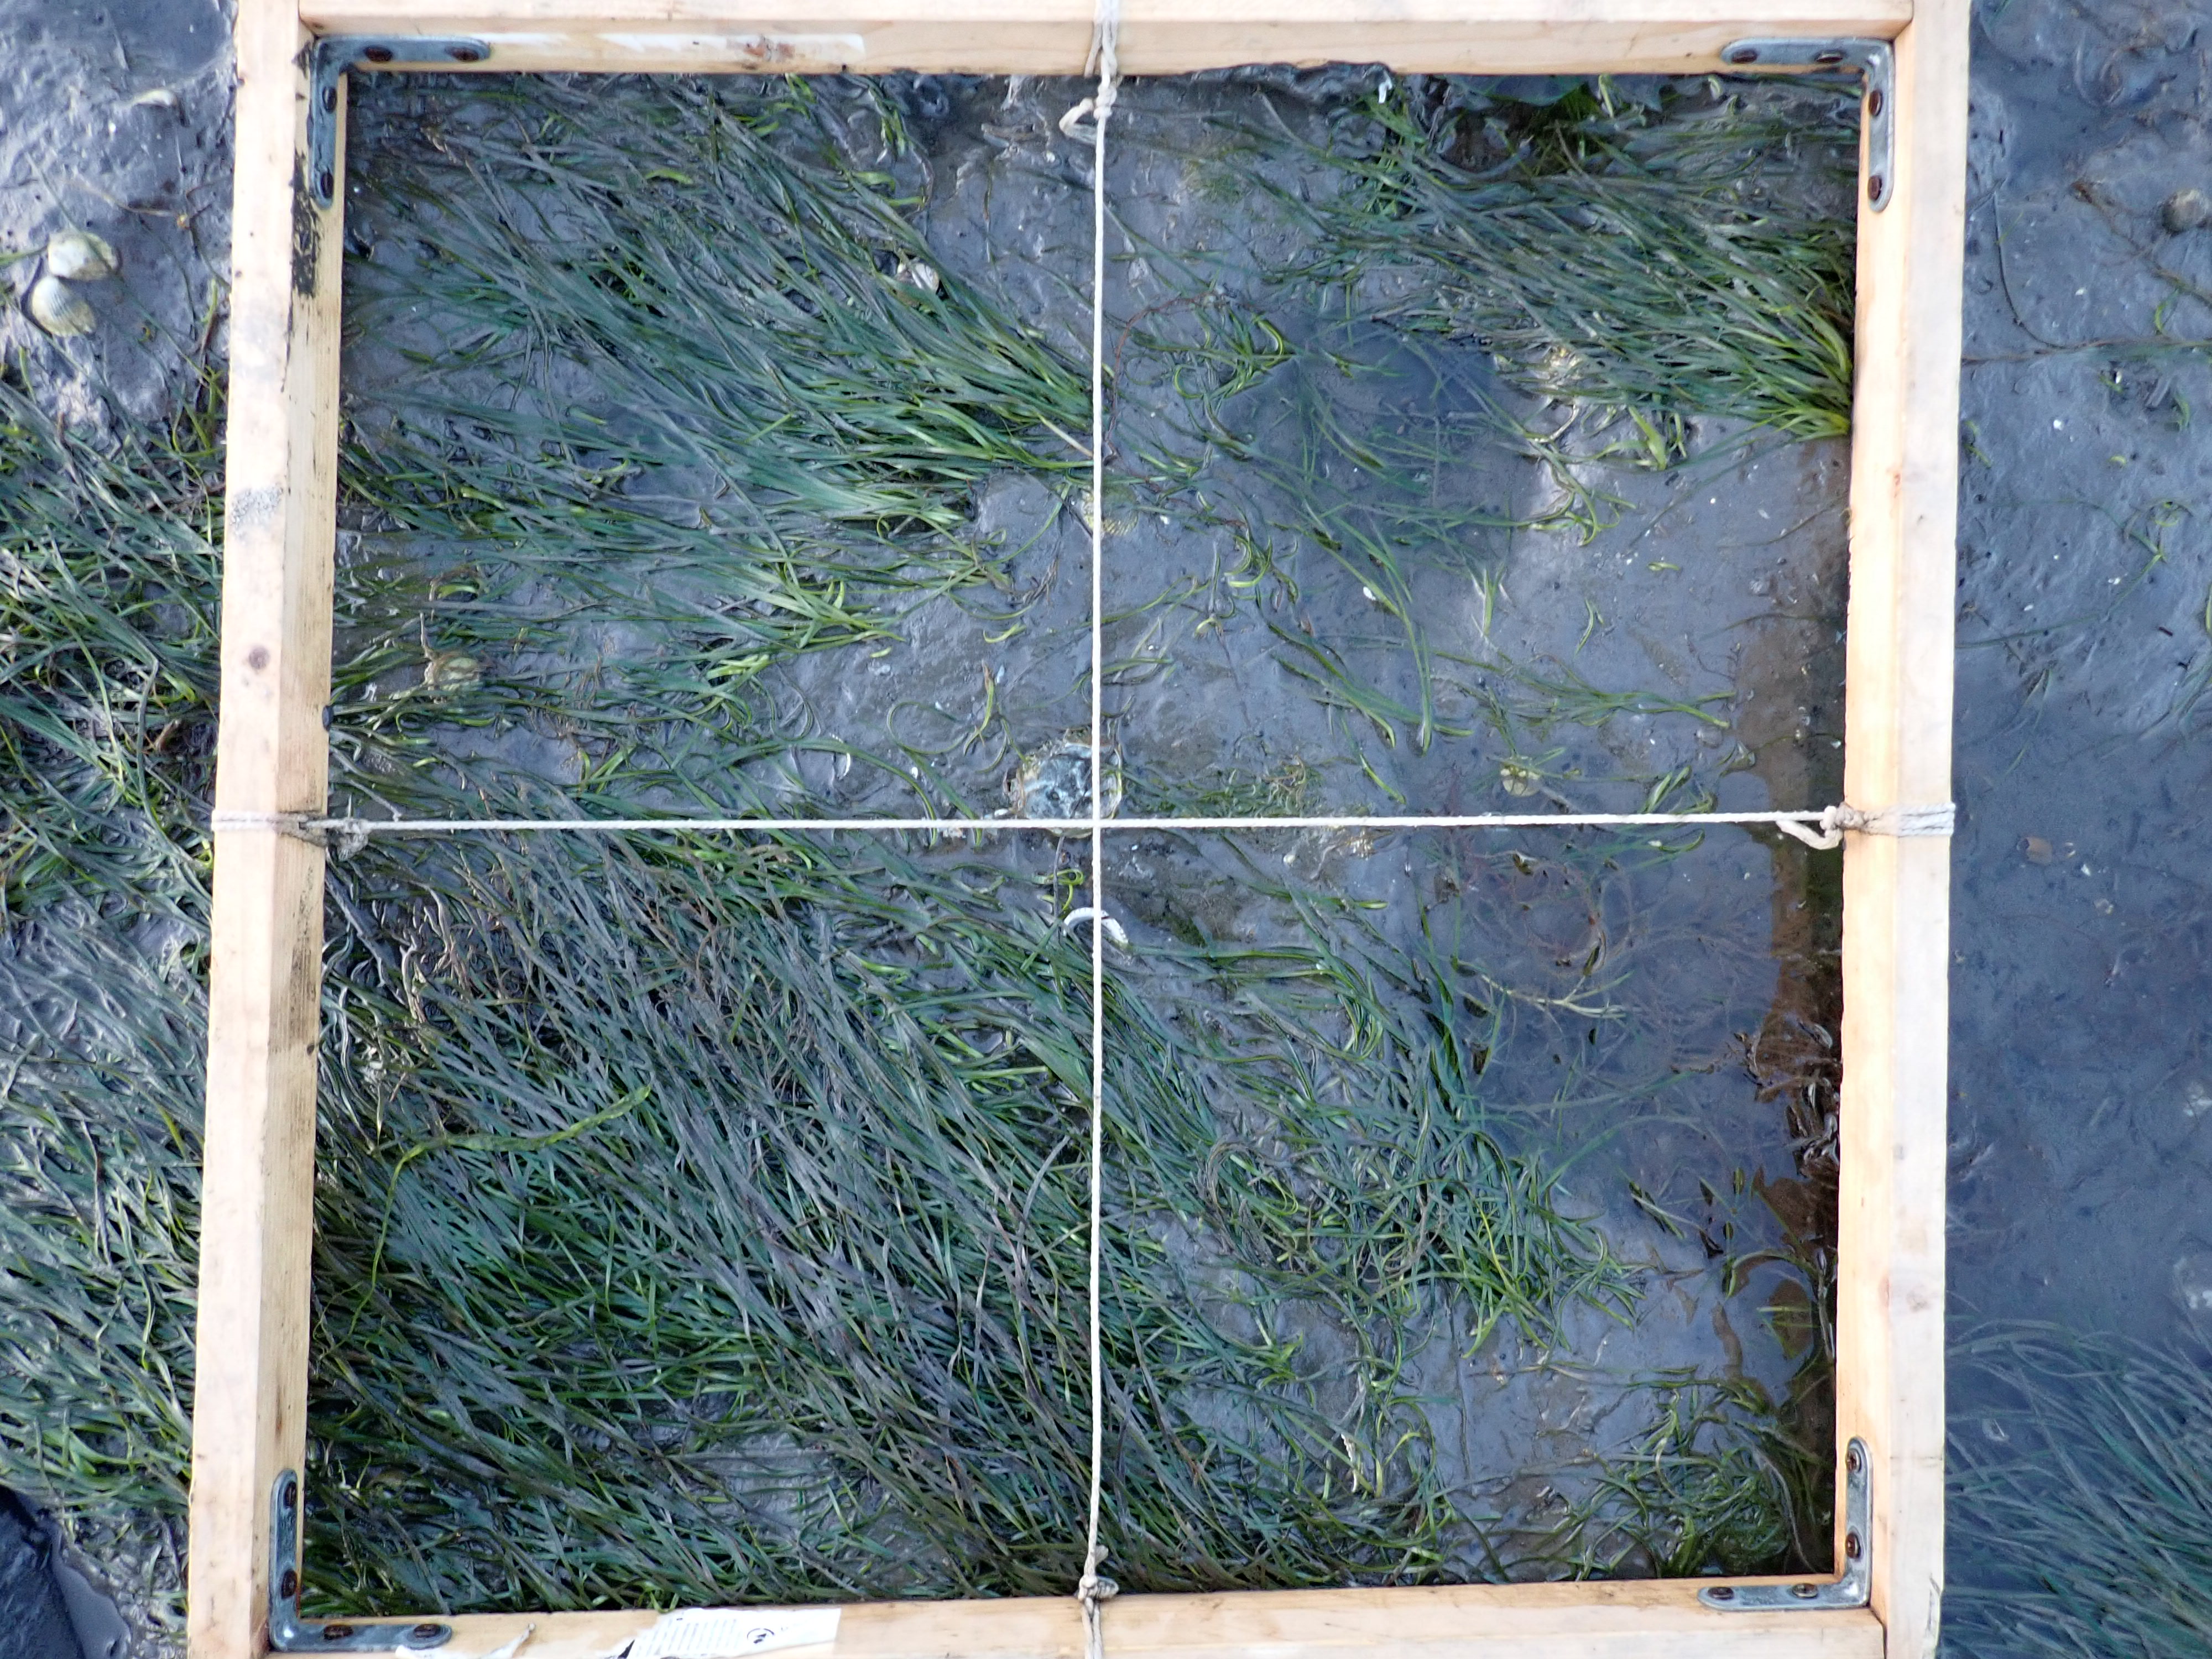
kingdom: Plantae
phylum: Rhodophyta
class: Florideophyceae
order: Gracilariales
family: Gracilariaceae
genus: Gracilaria
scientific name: Gracilaria vermiculophylla
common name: Algae
